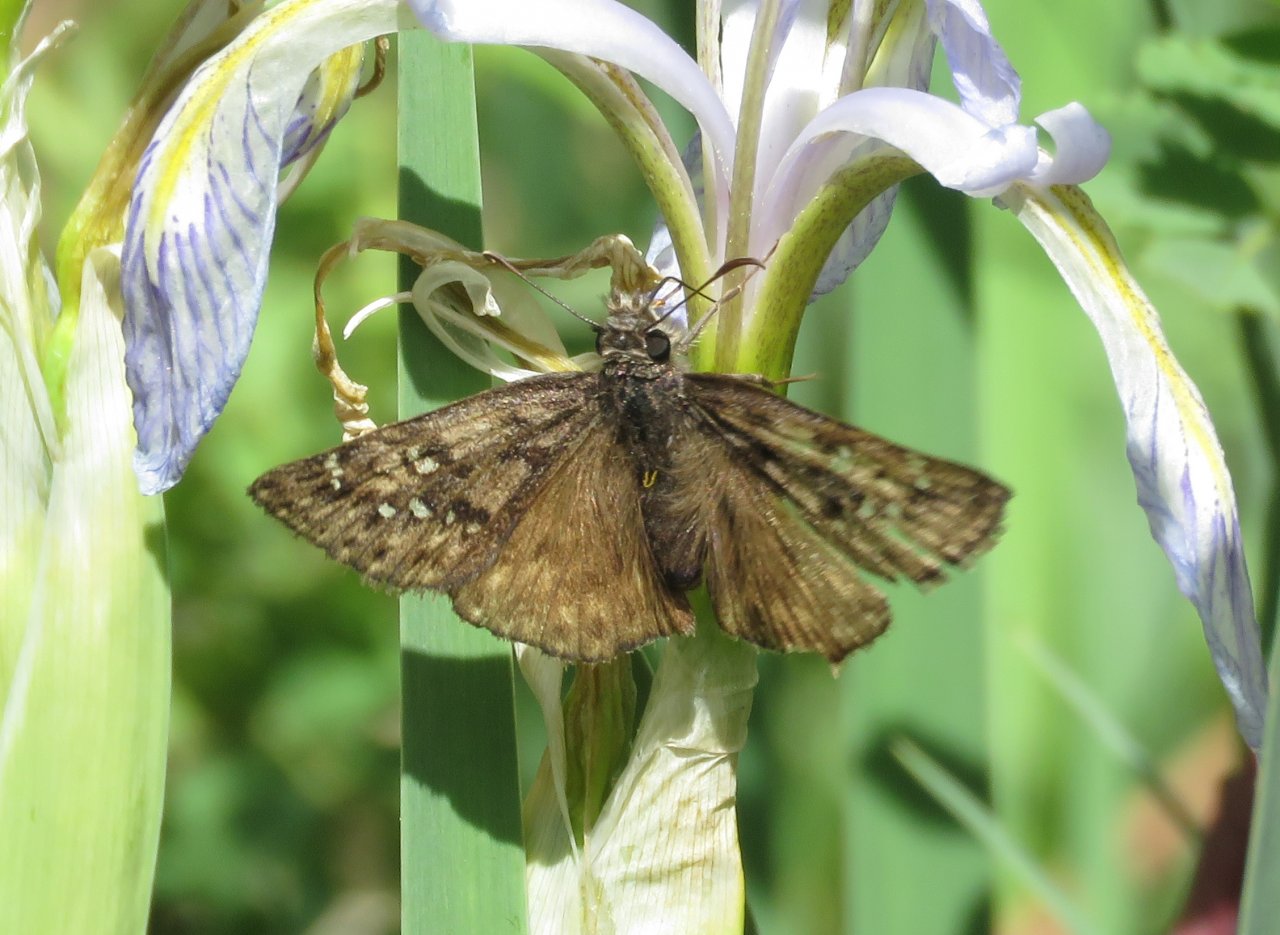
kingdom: Animalia
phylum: Arthropoda
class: Insecta
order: Lepidoptera
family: Hesperiidae
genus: Erynnis
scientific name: Erynnis telemachus
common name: Rocky Mountain Duskywing
